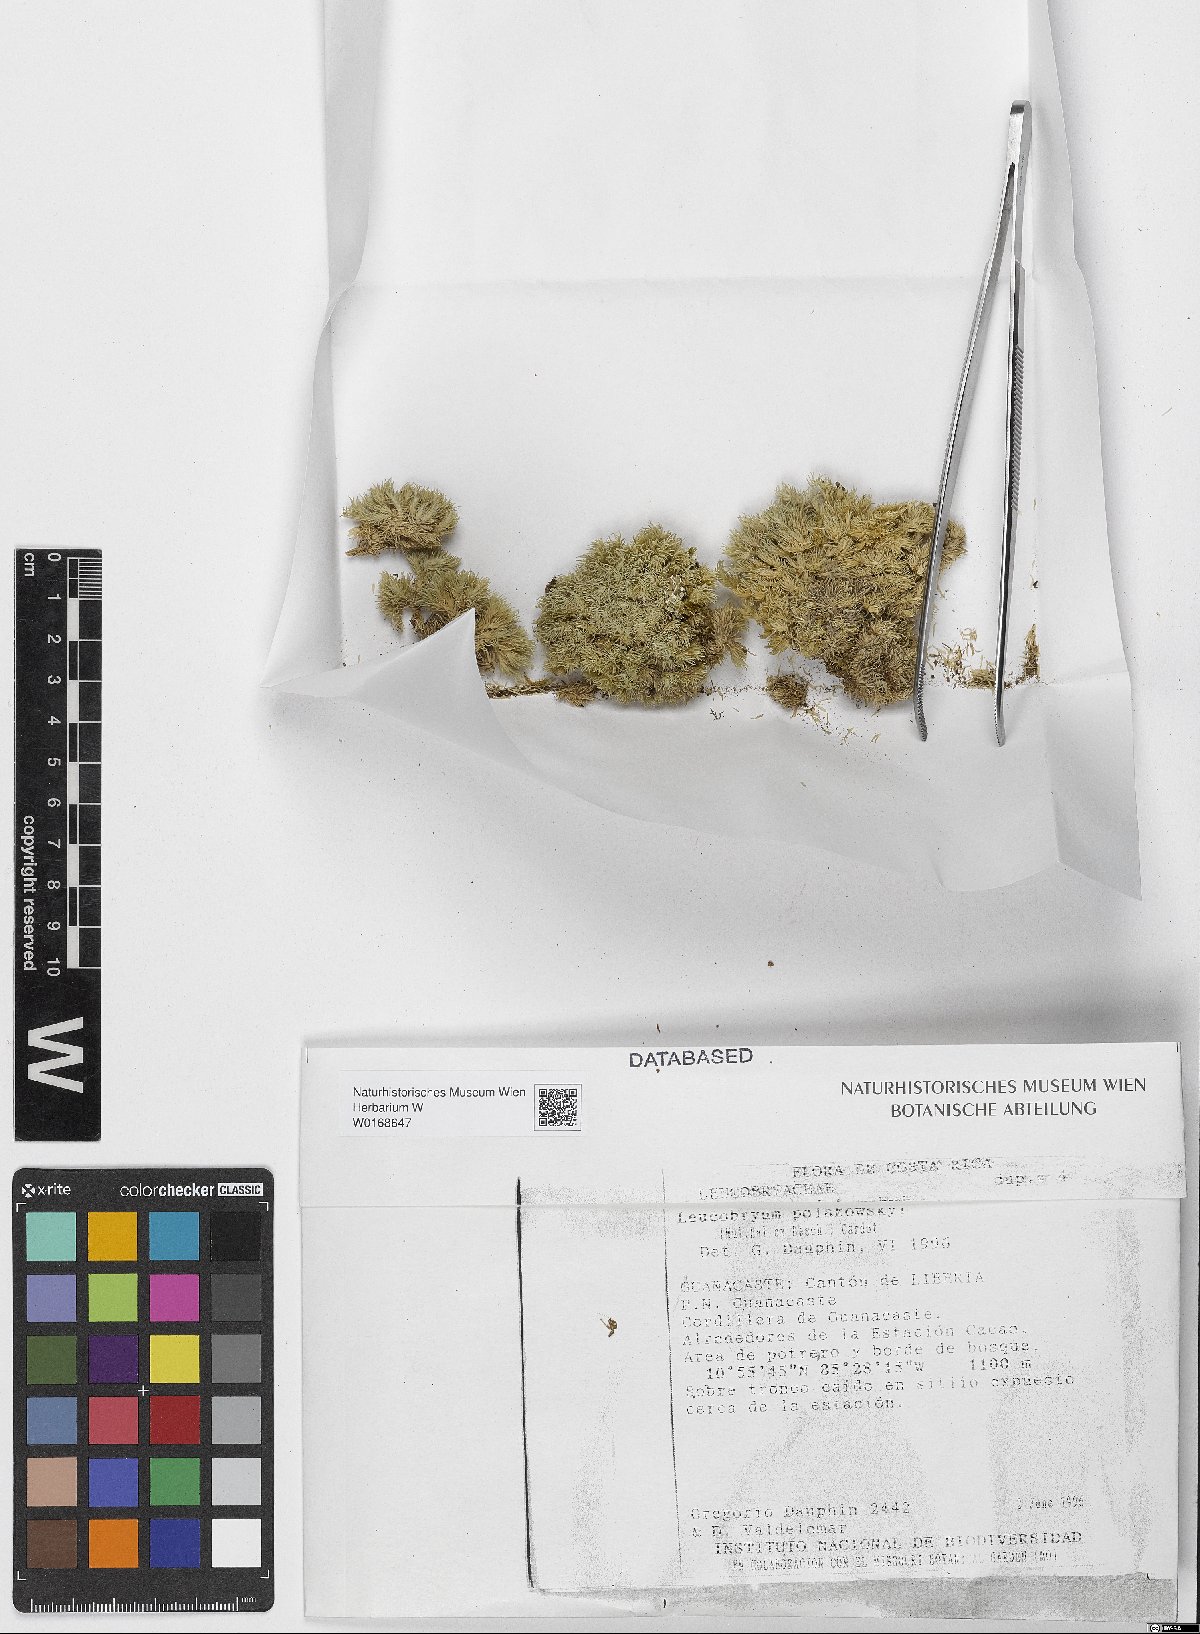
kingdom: Plantae
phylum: Bryophyta
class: Bryopsida
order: Dicranales
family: Leucobryaceae
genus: Leucobryum
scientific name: Leucobryum polakowskyi
